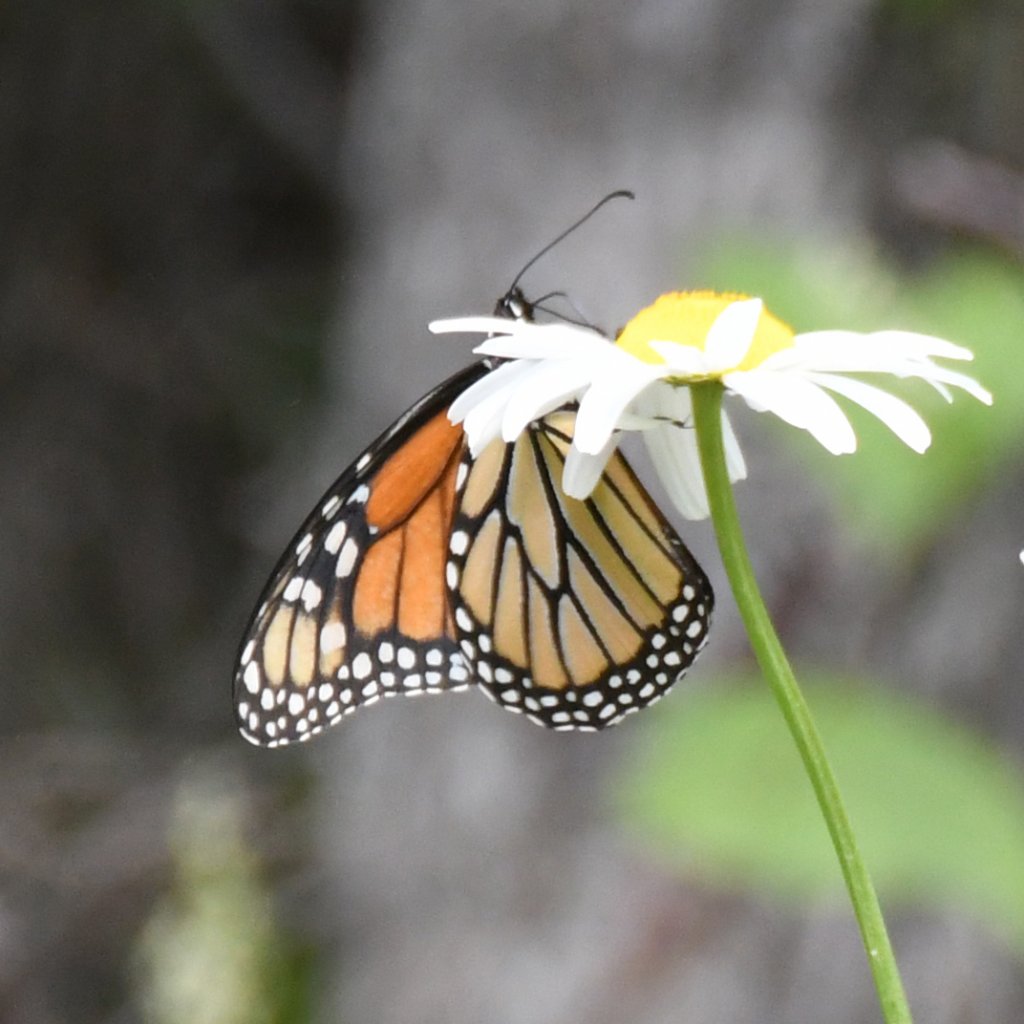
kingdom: Animalia
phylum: Arthropoda
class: Insecta
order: Lepidoptera
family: Nymphalidae
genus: Danaus
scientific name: Danaus plexippus
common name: Monarch
